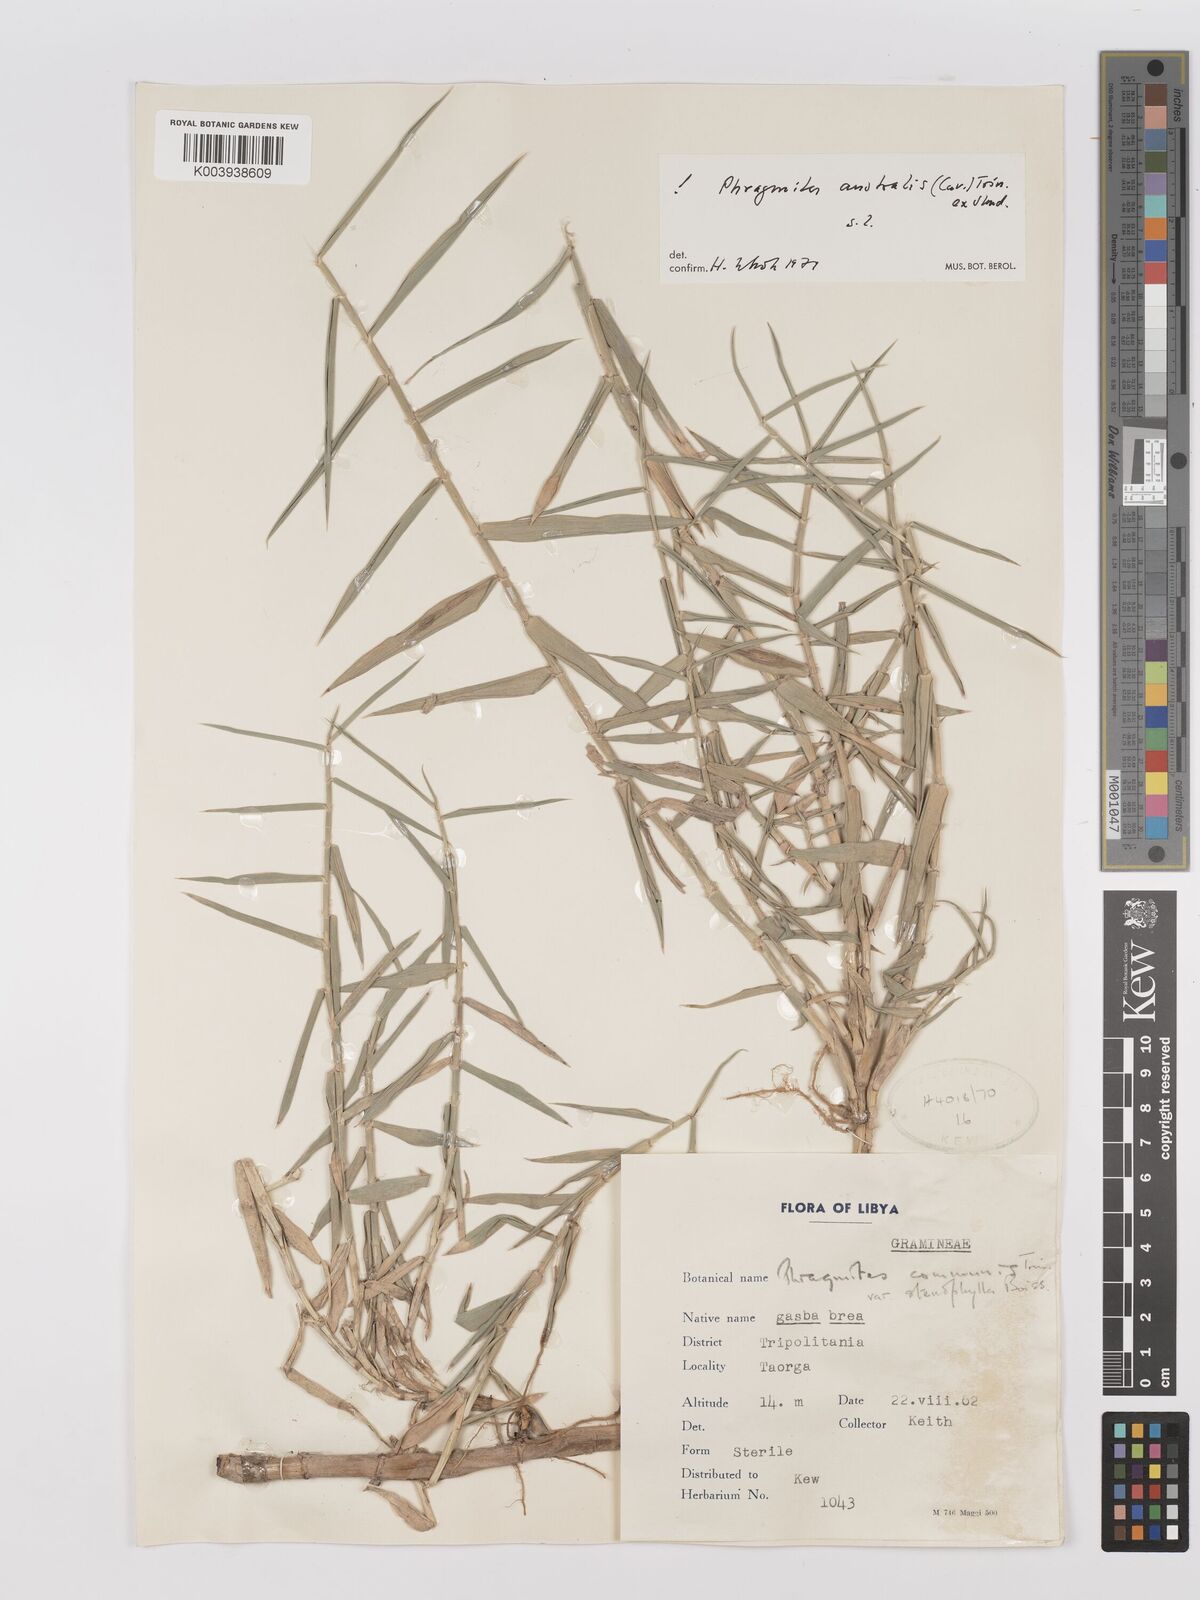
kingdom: Plantae
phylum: Tracheophyta
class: Liliopsida
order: Poales
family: Poaceae
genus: Phragmites
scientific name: Phragmites australis
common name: Common reed
